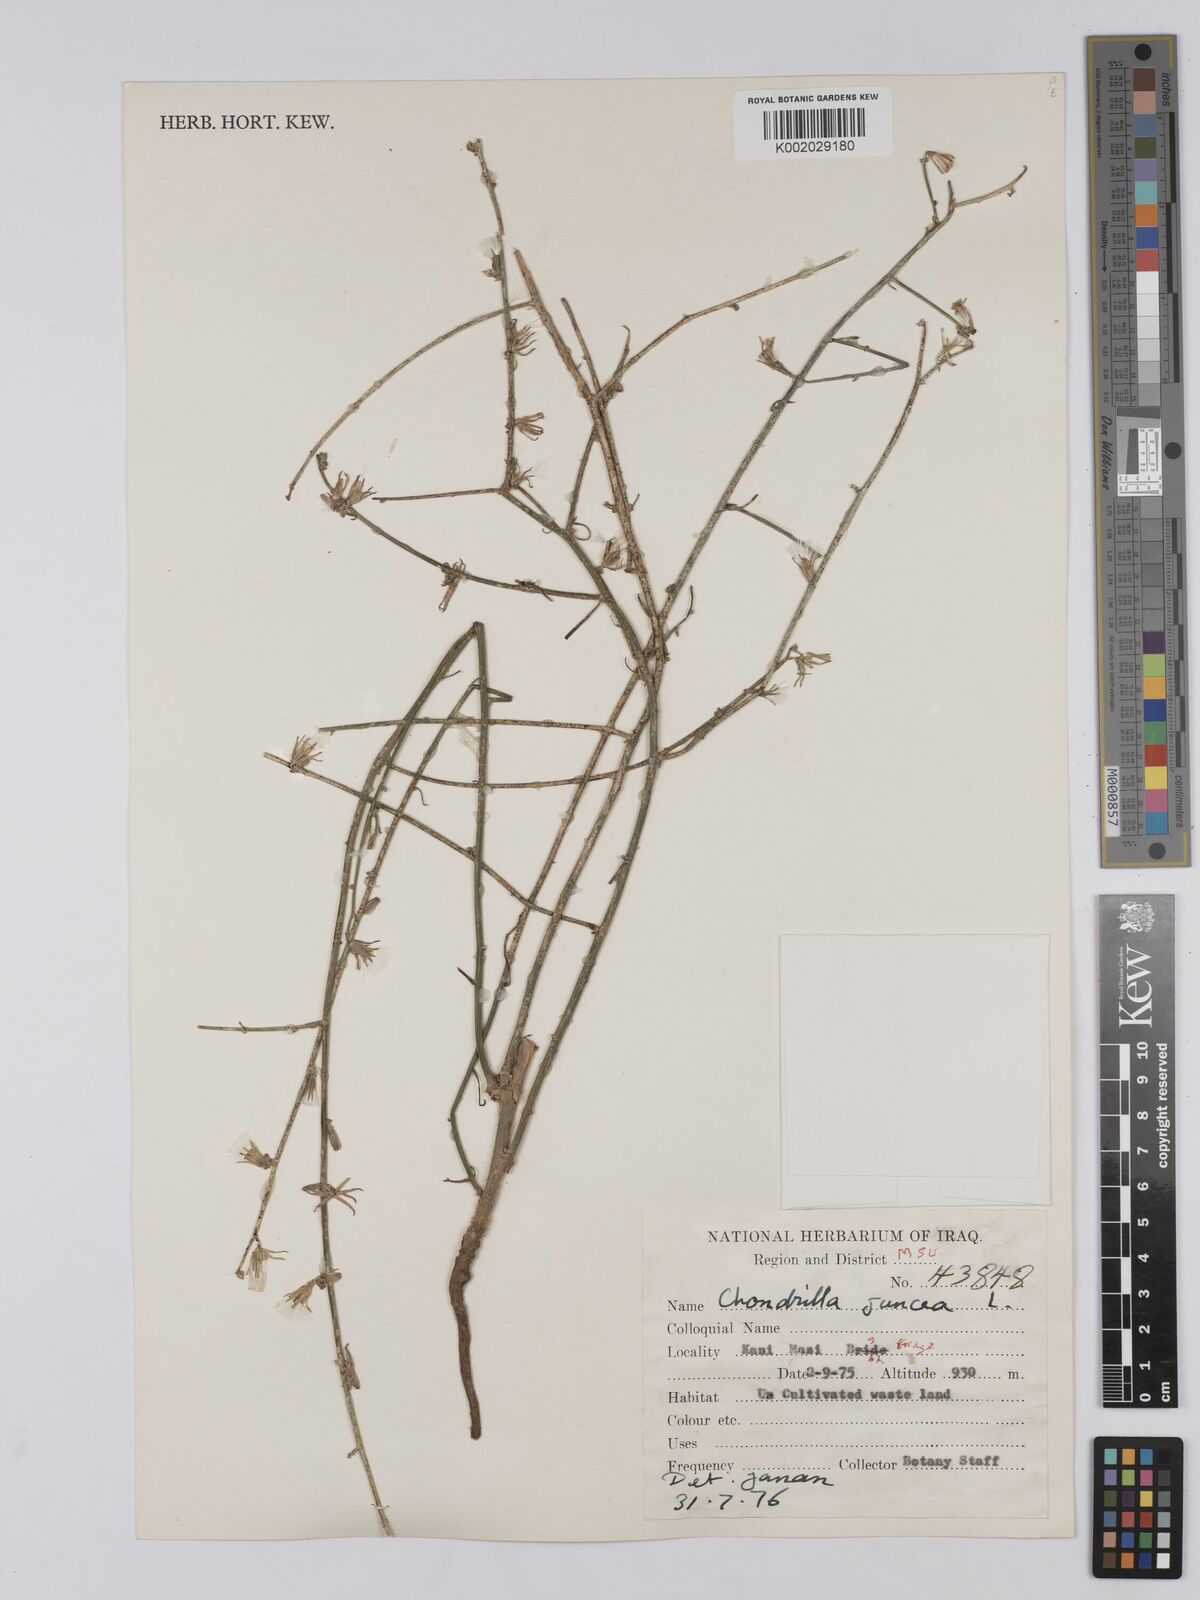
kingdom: Plantae
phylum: Tracheophyta
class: Magnoliopsida
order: Asterales
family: Asteraceae
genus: Chondrilla
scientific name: Chondrilla juncea
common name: Skeleton weed
